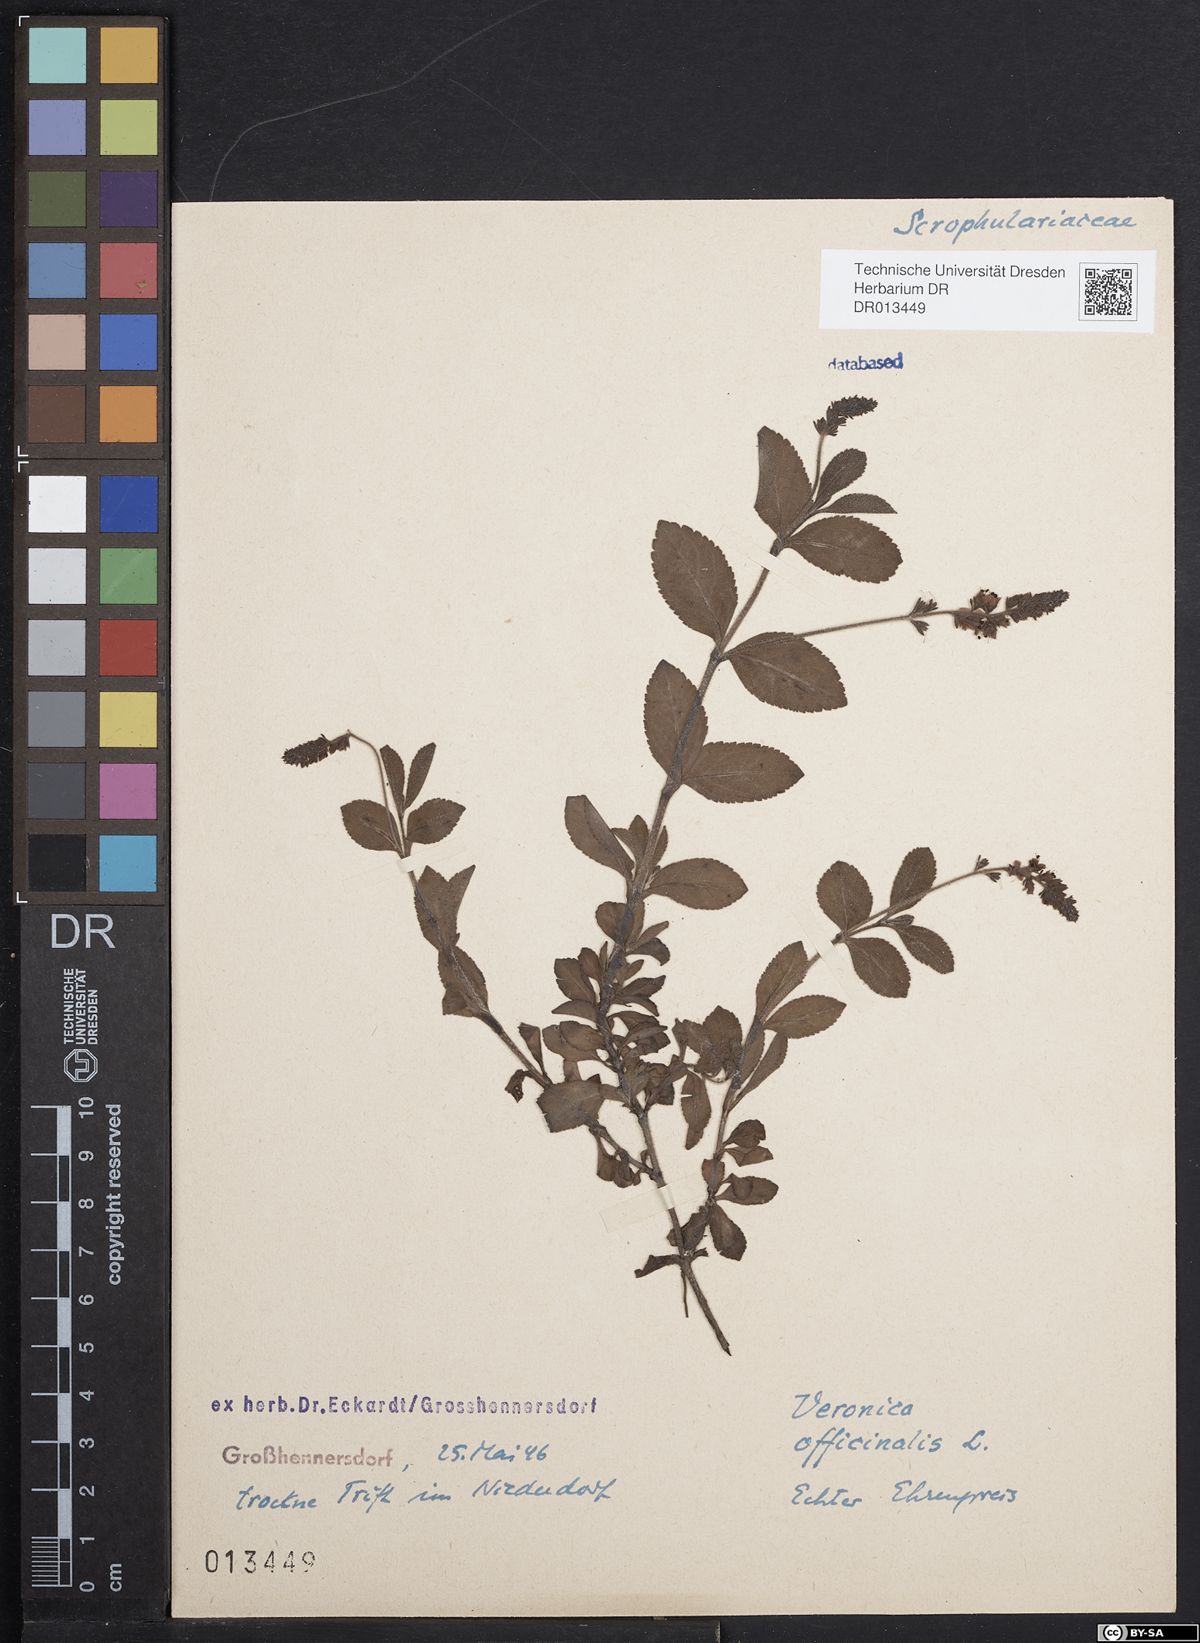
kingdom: Plantae
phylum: Tracheophyta
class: Magnoliopsida
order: Lamiales
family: Plantaginaceae
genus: Veronica
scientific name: Veronica officinalis
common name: Common speedwell
